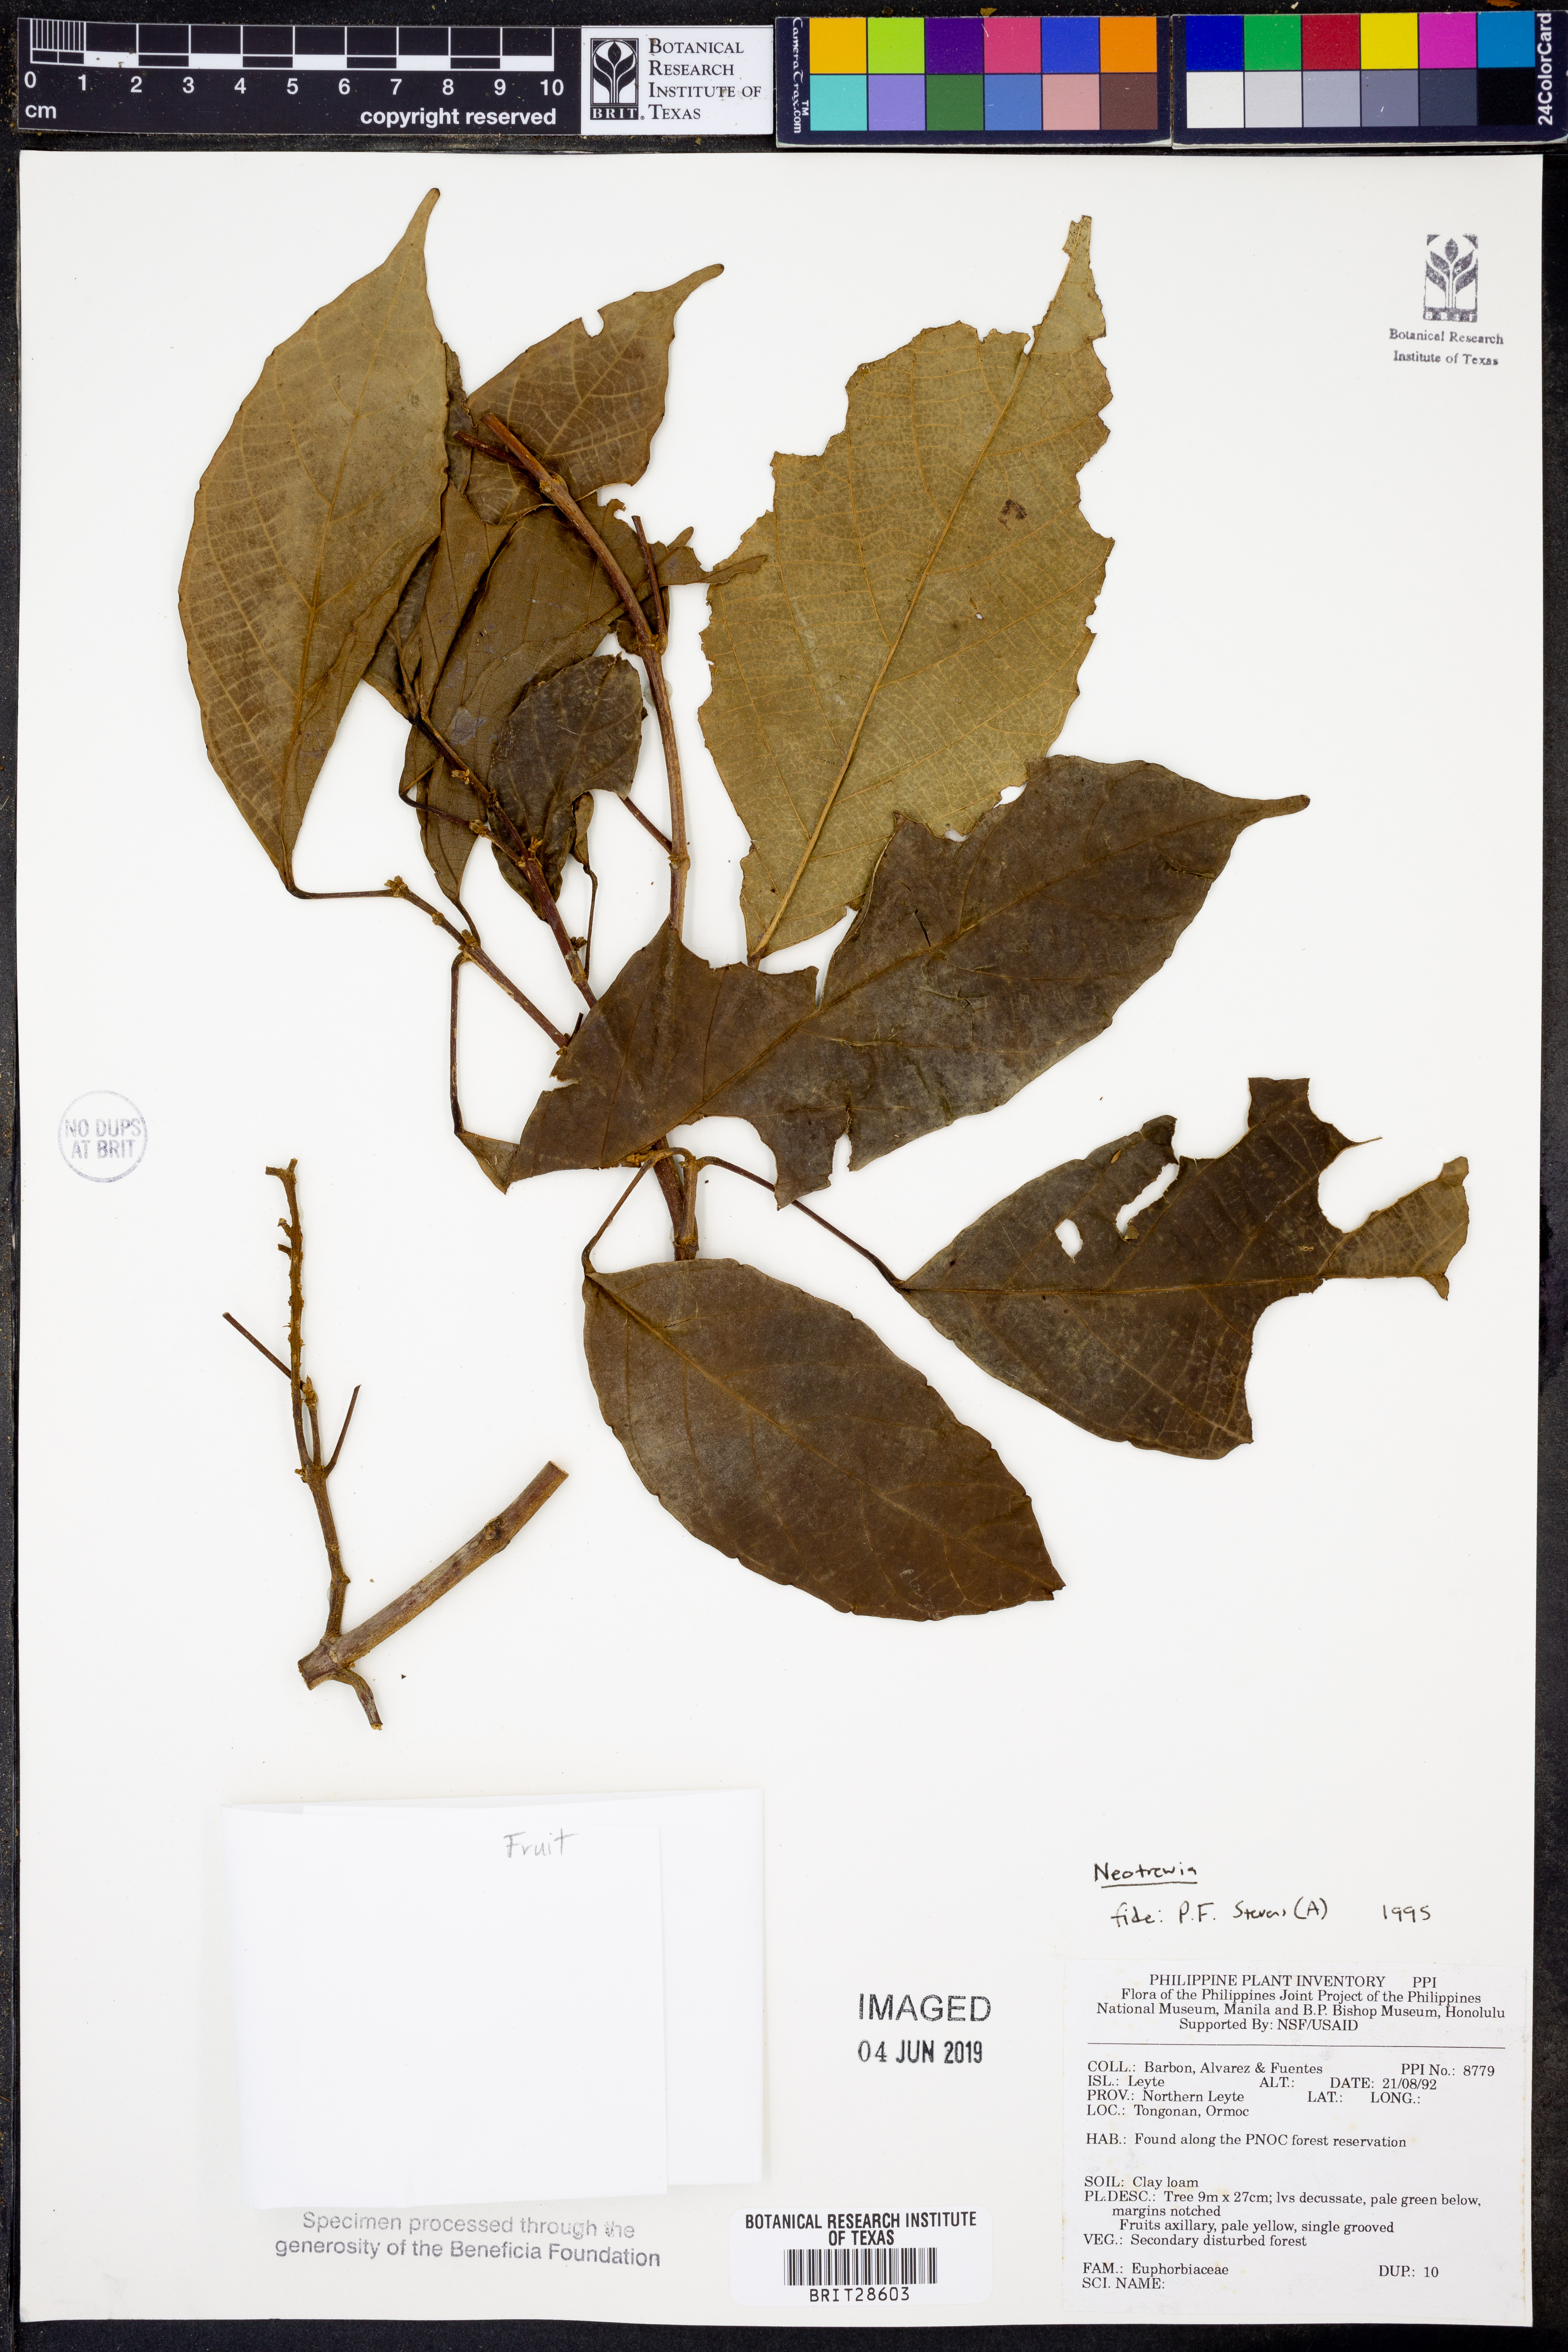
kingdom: Plantae
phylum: Tracheophyta
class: Magnoliopsida
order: Malpighiales
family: Euphorbiaceae
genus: Mallotus
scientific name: Mallotus
